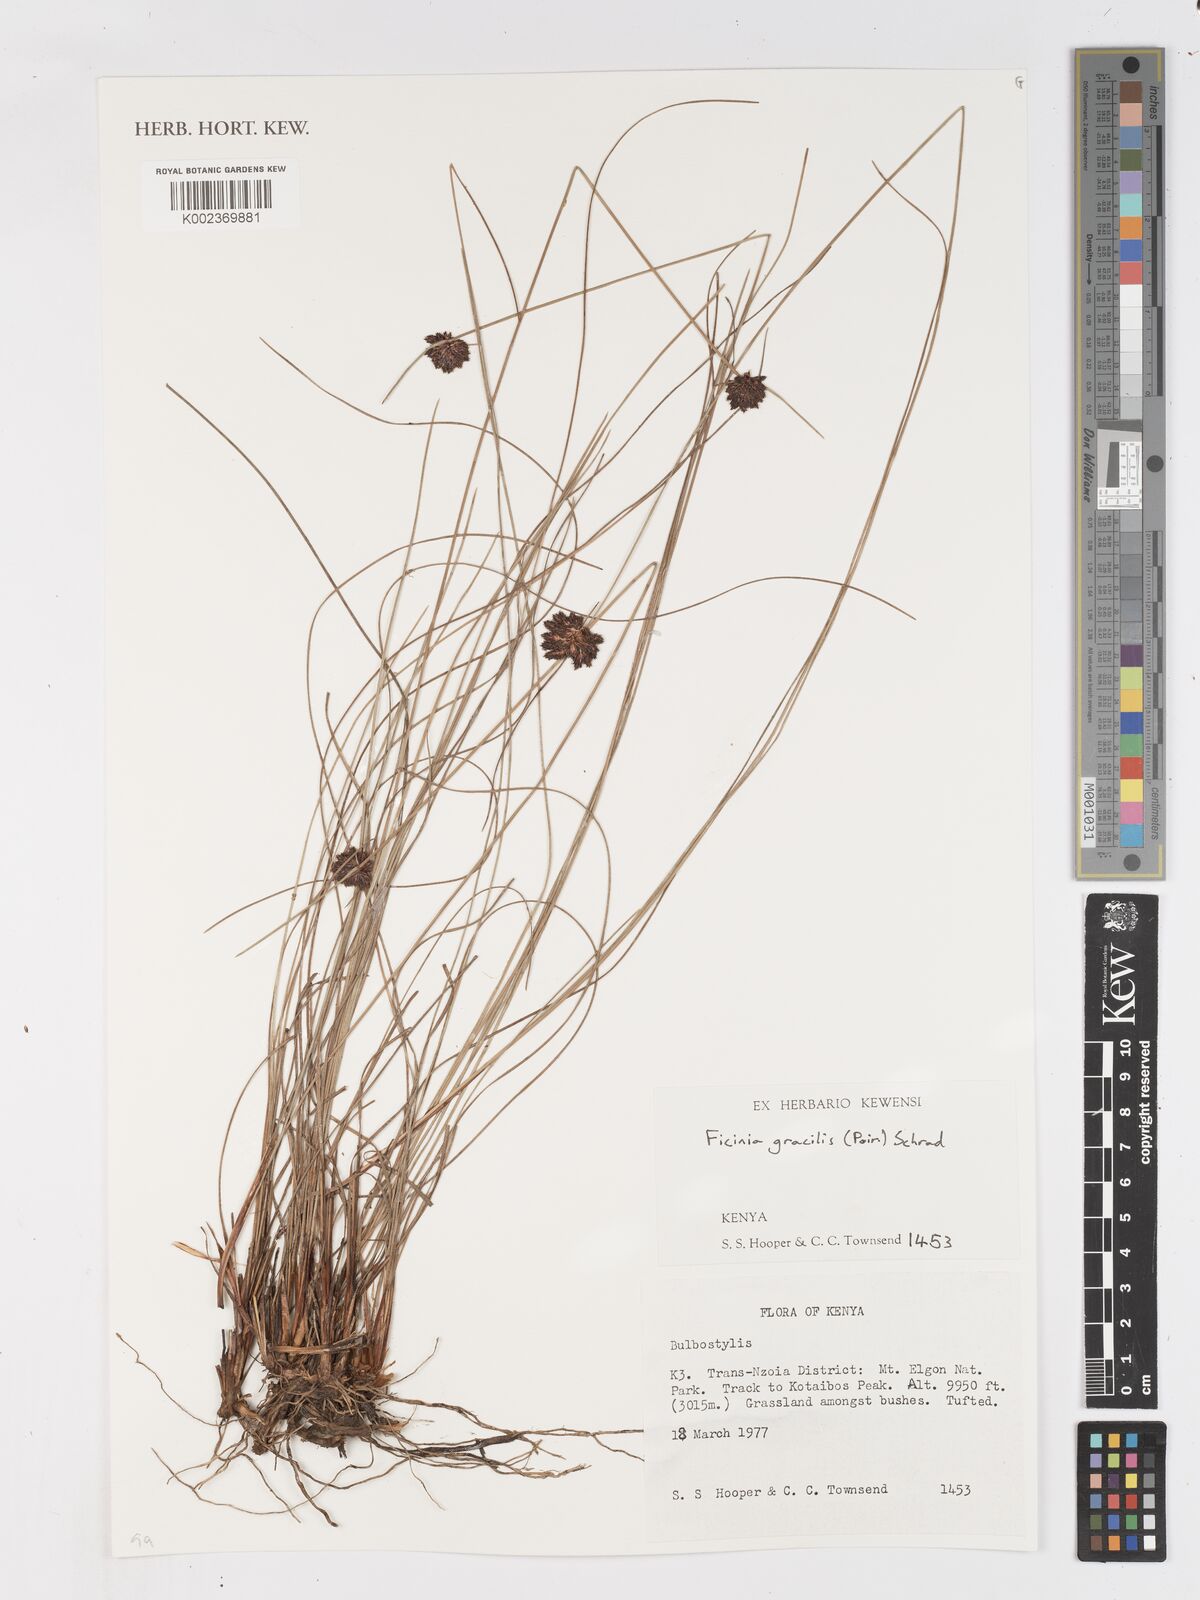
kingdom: Plantae
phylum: Tracheophyta
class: Liliopsida
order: Poales
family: Cyperaceae
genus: Ficinia
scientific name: Ficinia gracilis
